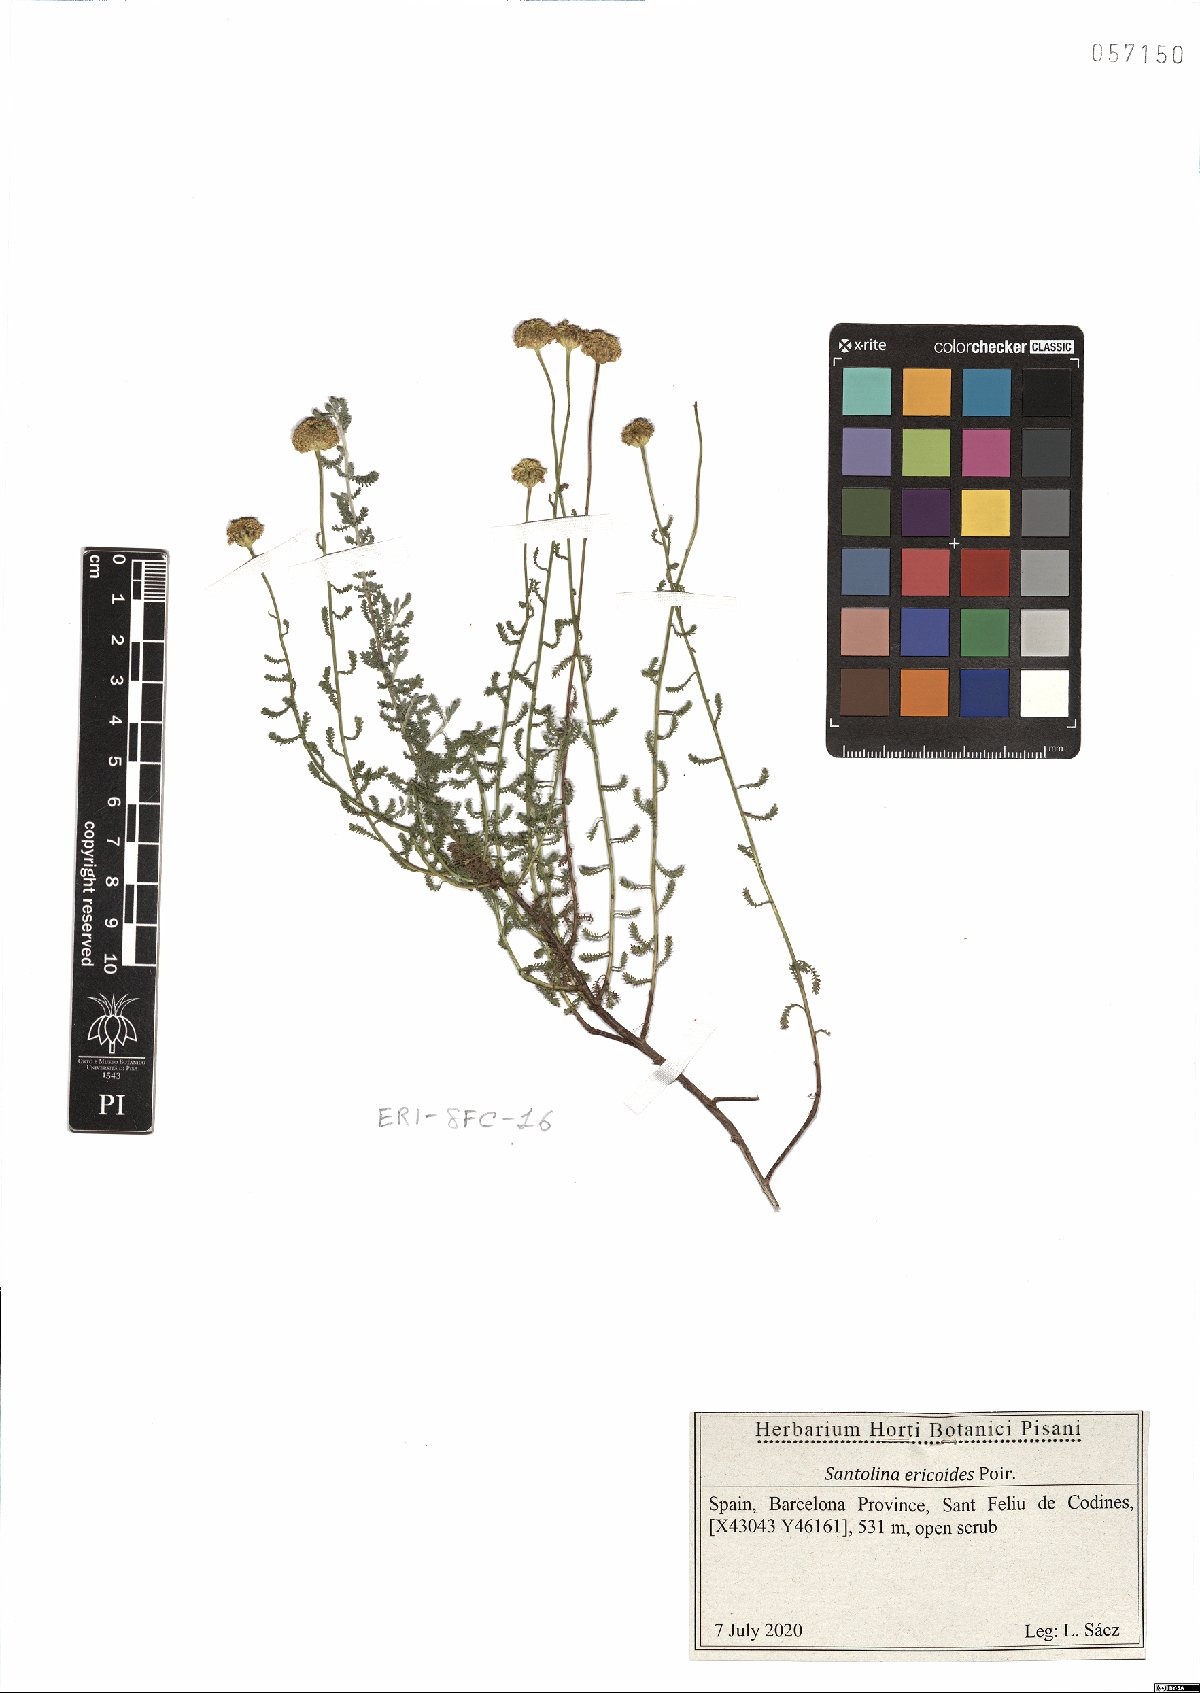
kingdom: Plantae
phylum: Tracheophyta
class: Magnoliopsida
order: Asterales
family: Asteraceae
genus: Santolina
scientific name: Santolina ericoides
